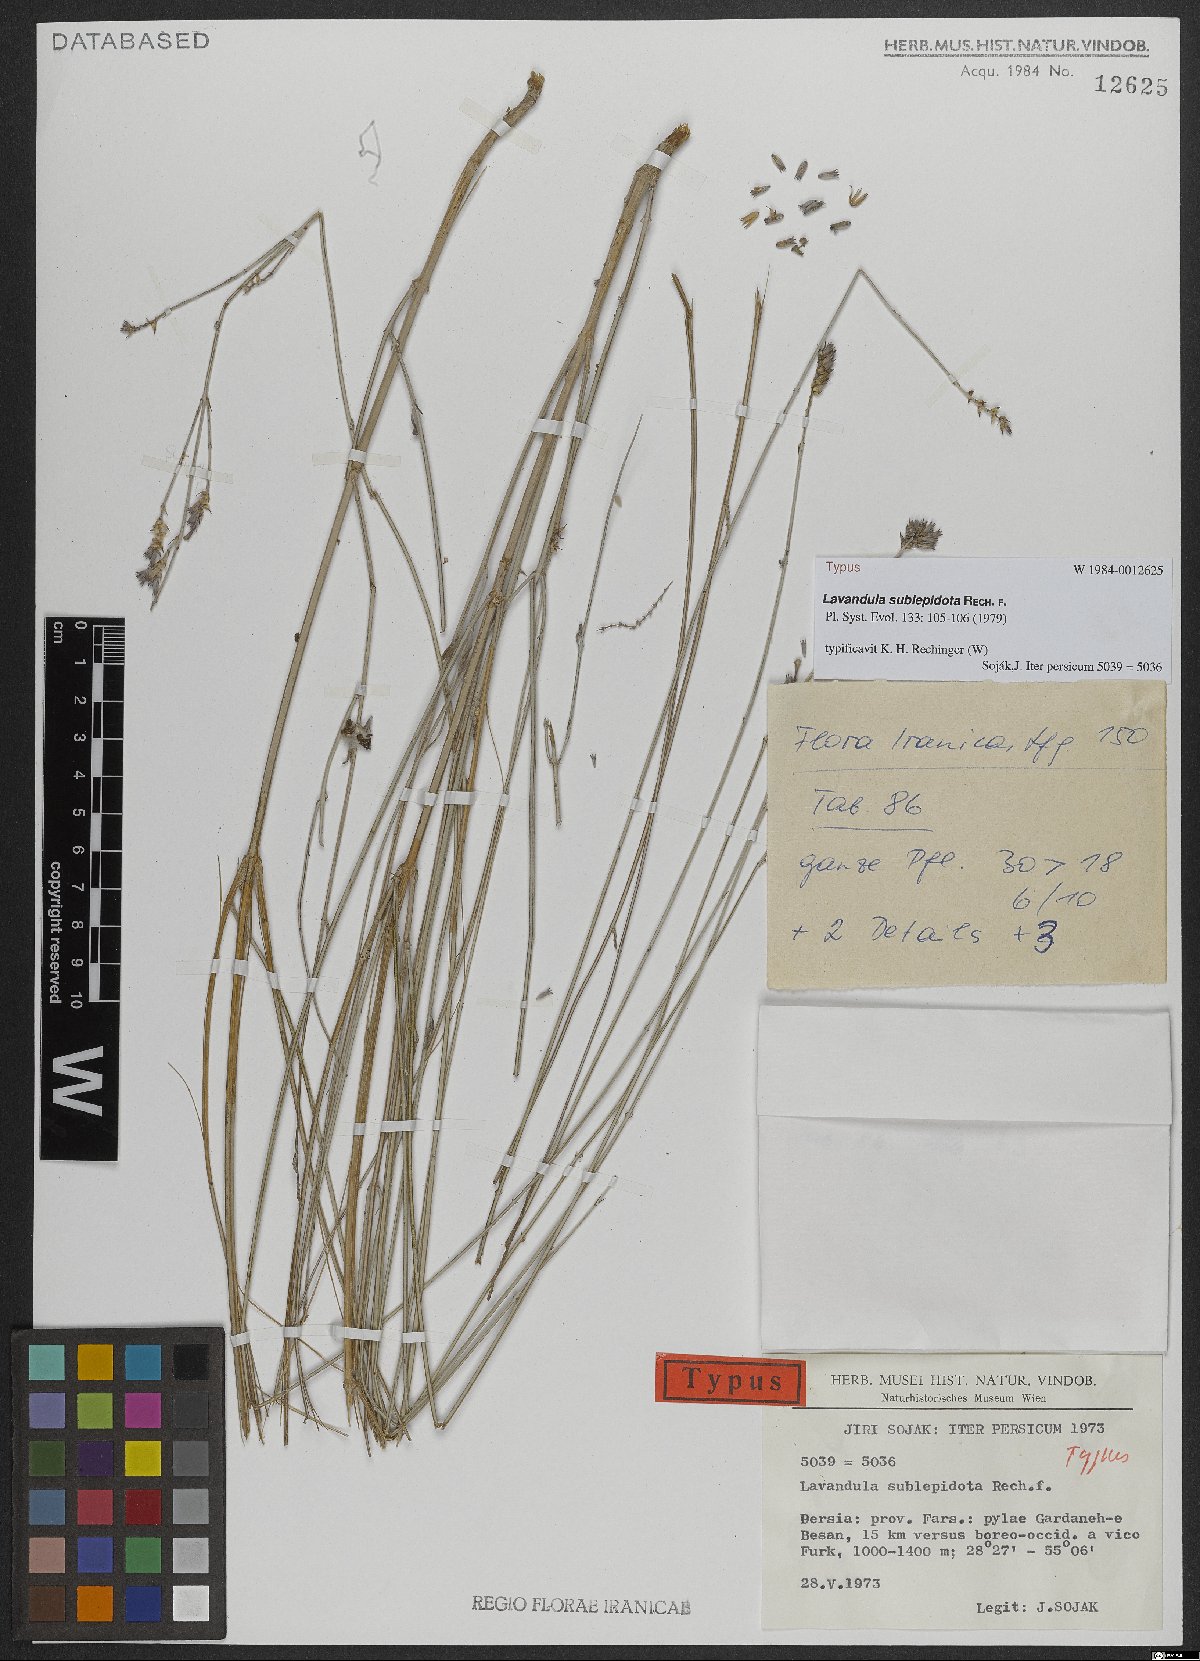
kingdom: Plantae
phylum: Tracheophyta
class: Magnoliopsida
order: Lamiales
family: Lamiaceae
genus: Lavandula
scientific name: Lavandula sublepidota
